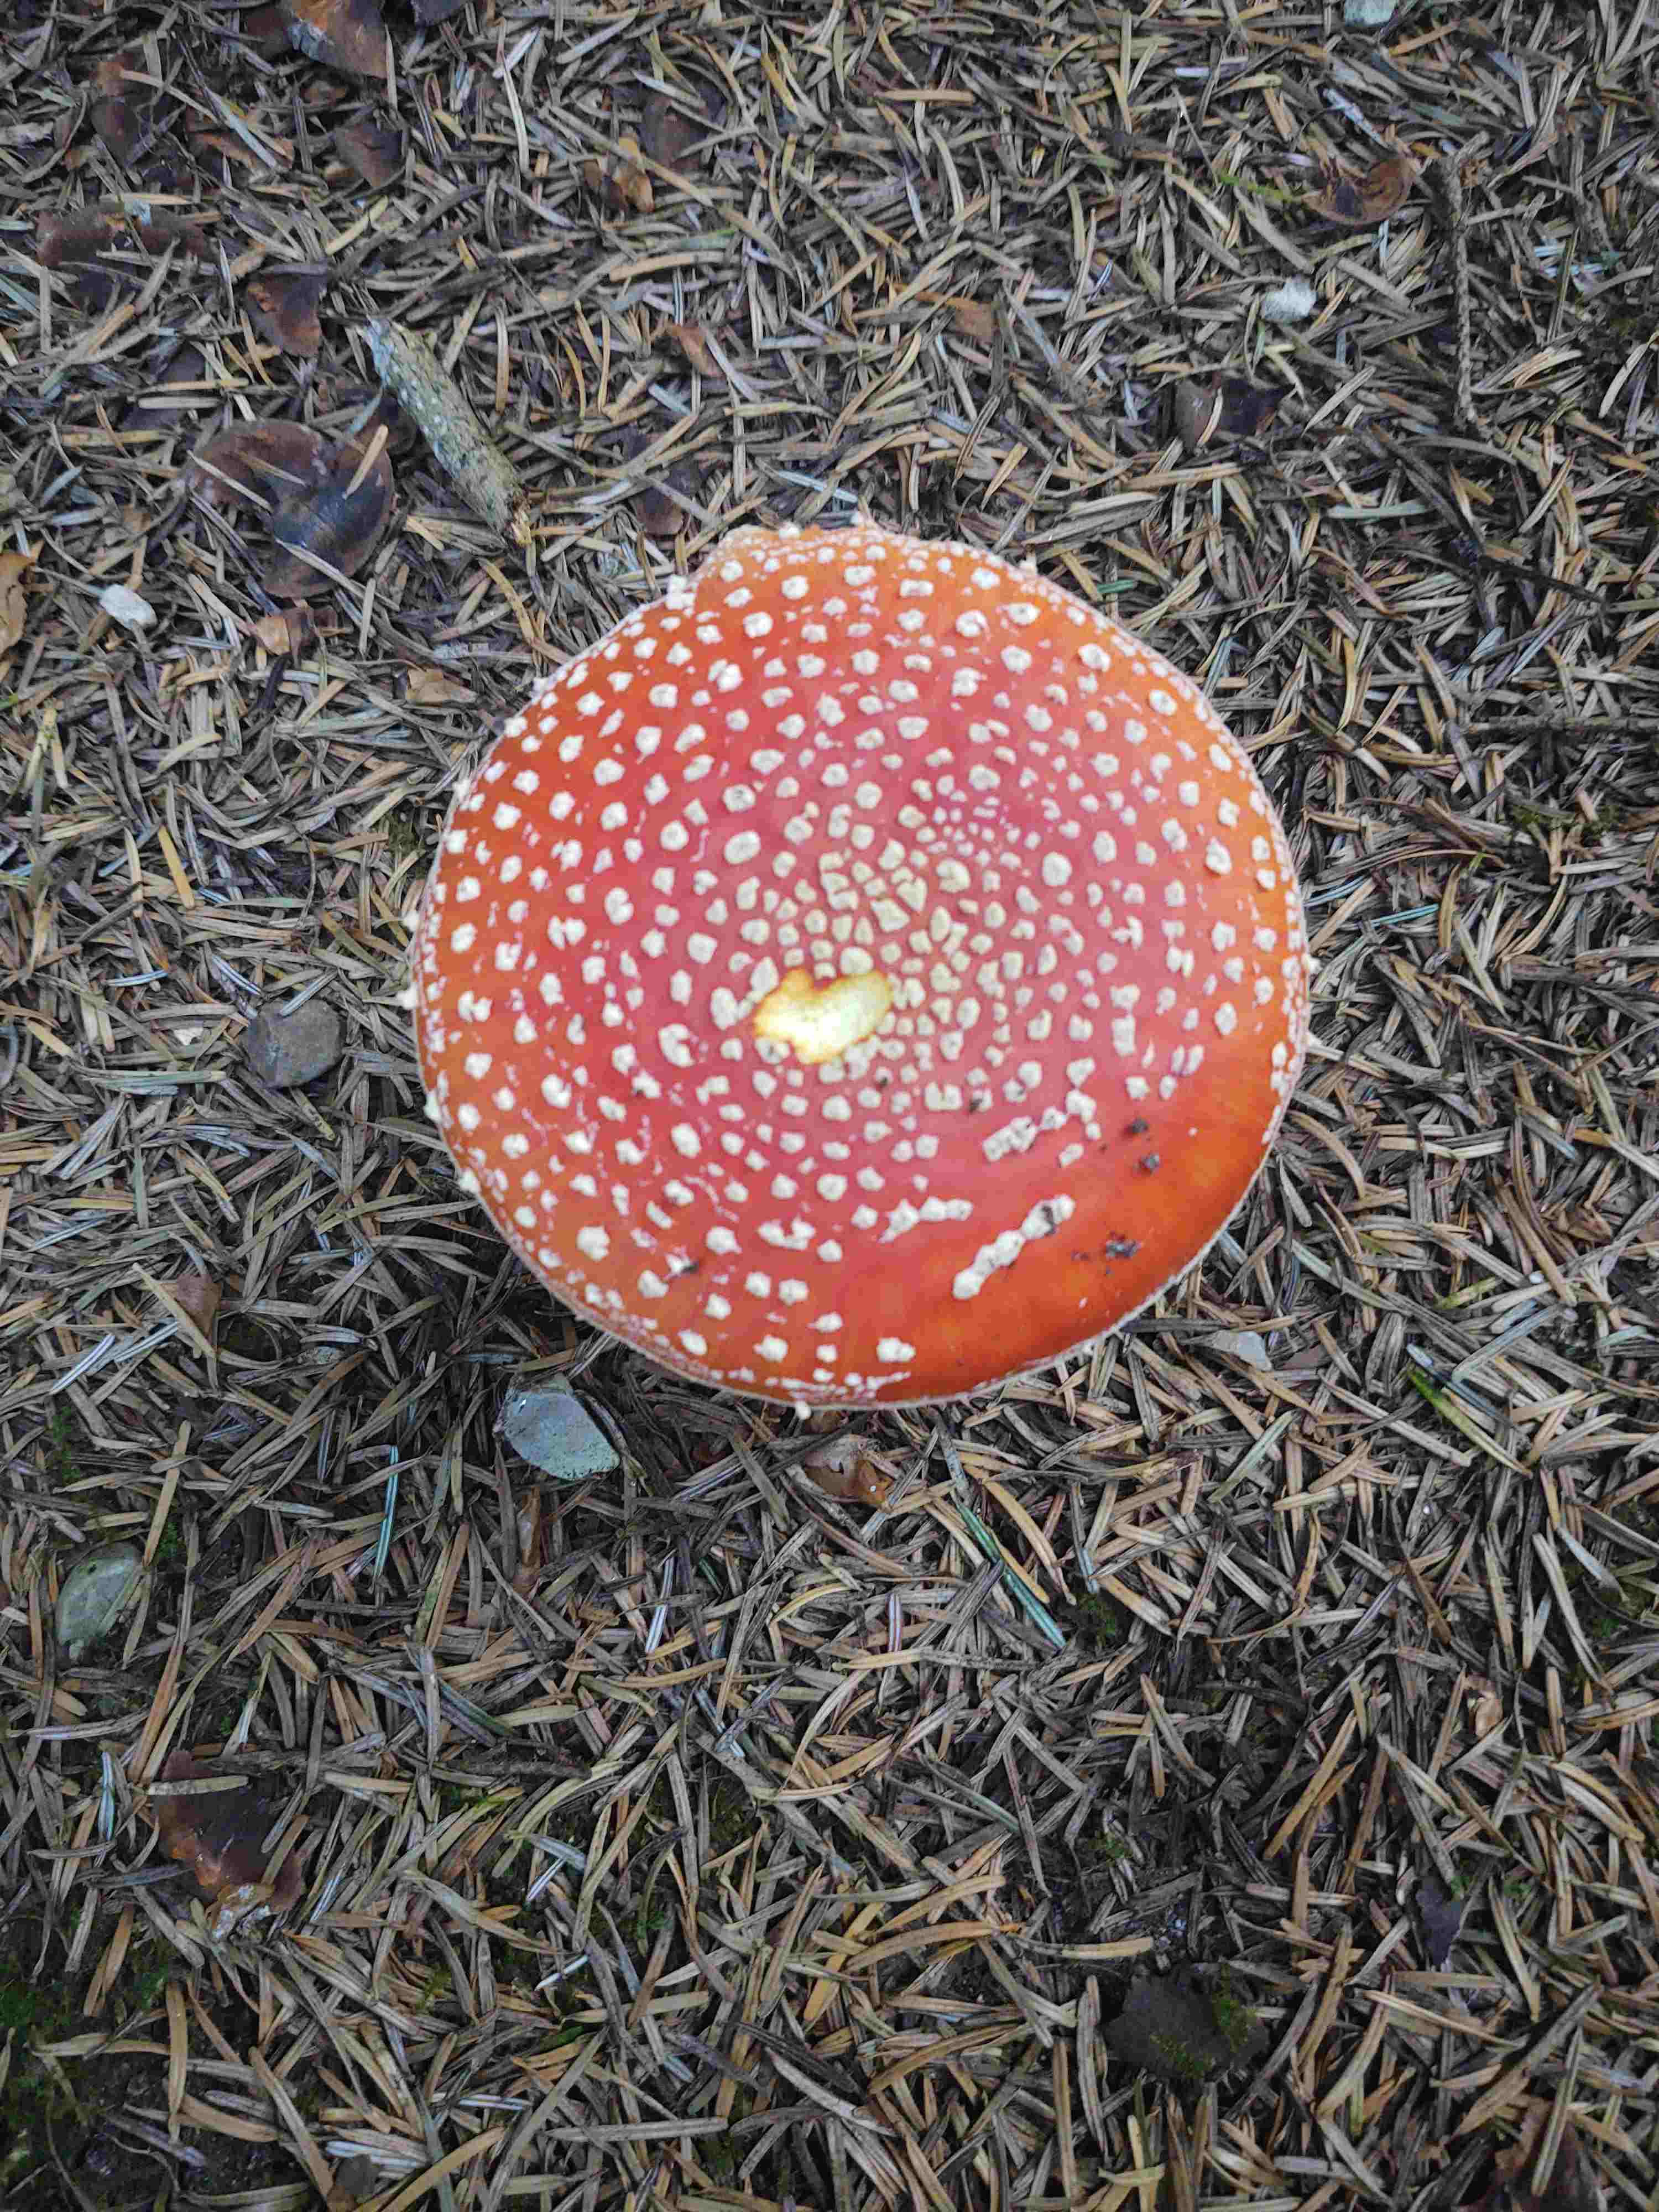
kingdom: Fungi
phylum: Basidiomycota
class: Agaricomycetes
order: Agaricales
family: Amanitaceae
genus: Amanita
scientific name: Amanita muscaria
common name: rød fluesvamp
